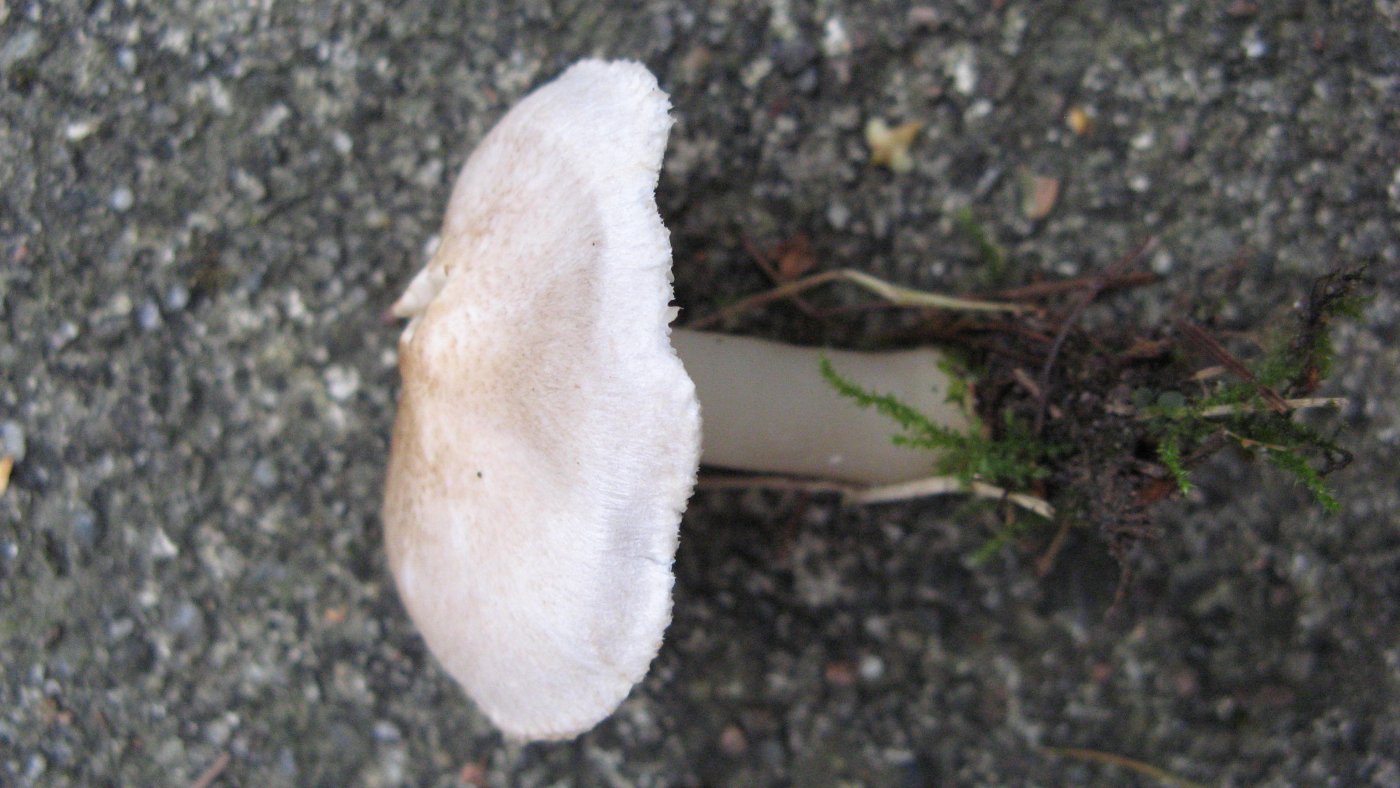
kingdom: Fungi
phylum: Basidiomycota
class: Agaricomycetes
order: Agaricales
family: Tricholomataceae
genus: Tricholoma
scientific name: Tricholoma argyraceum
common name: spids ridderhat
